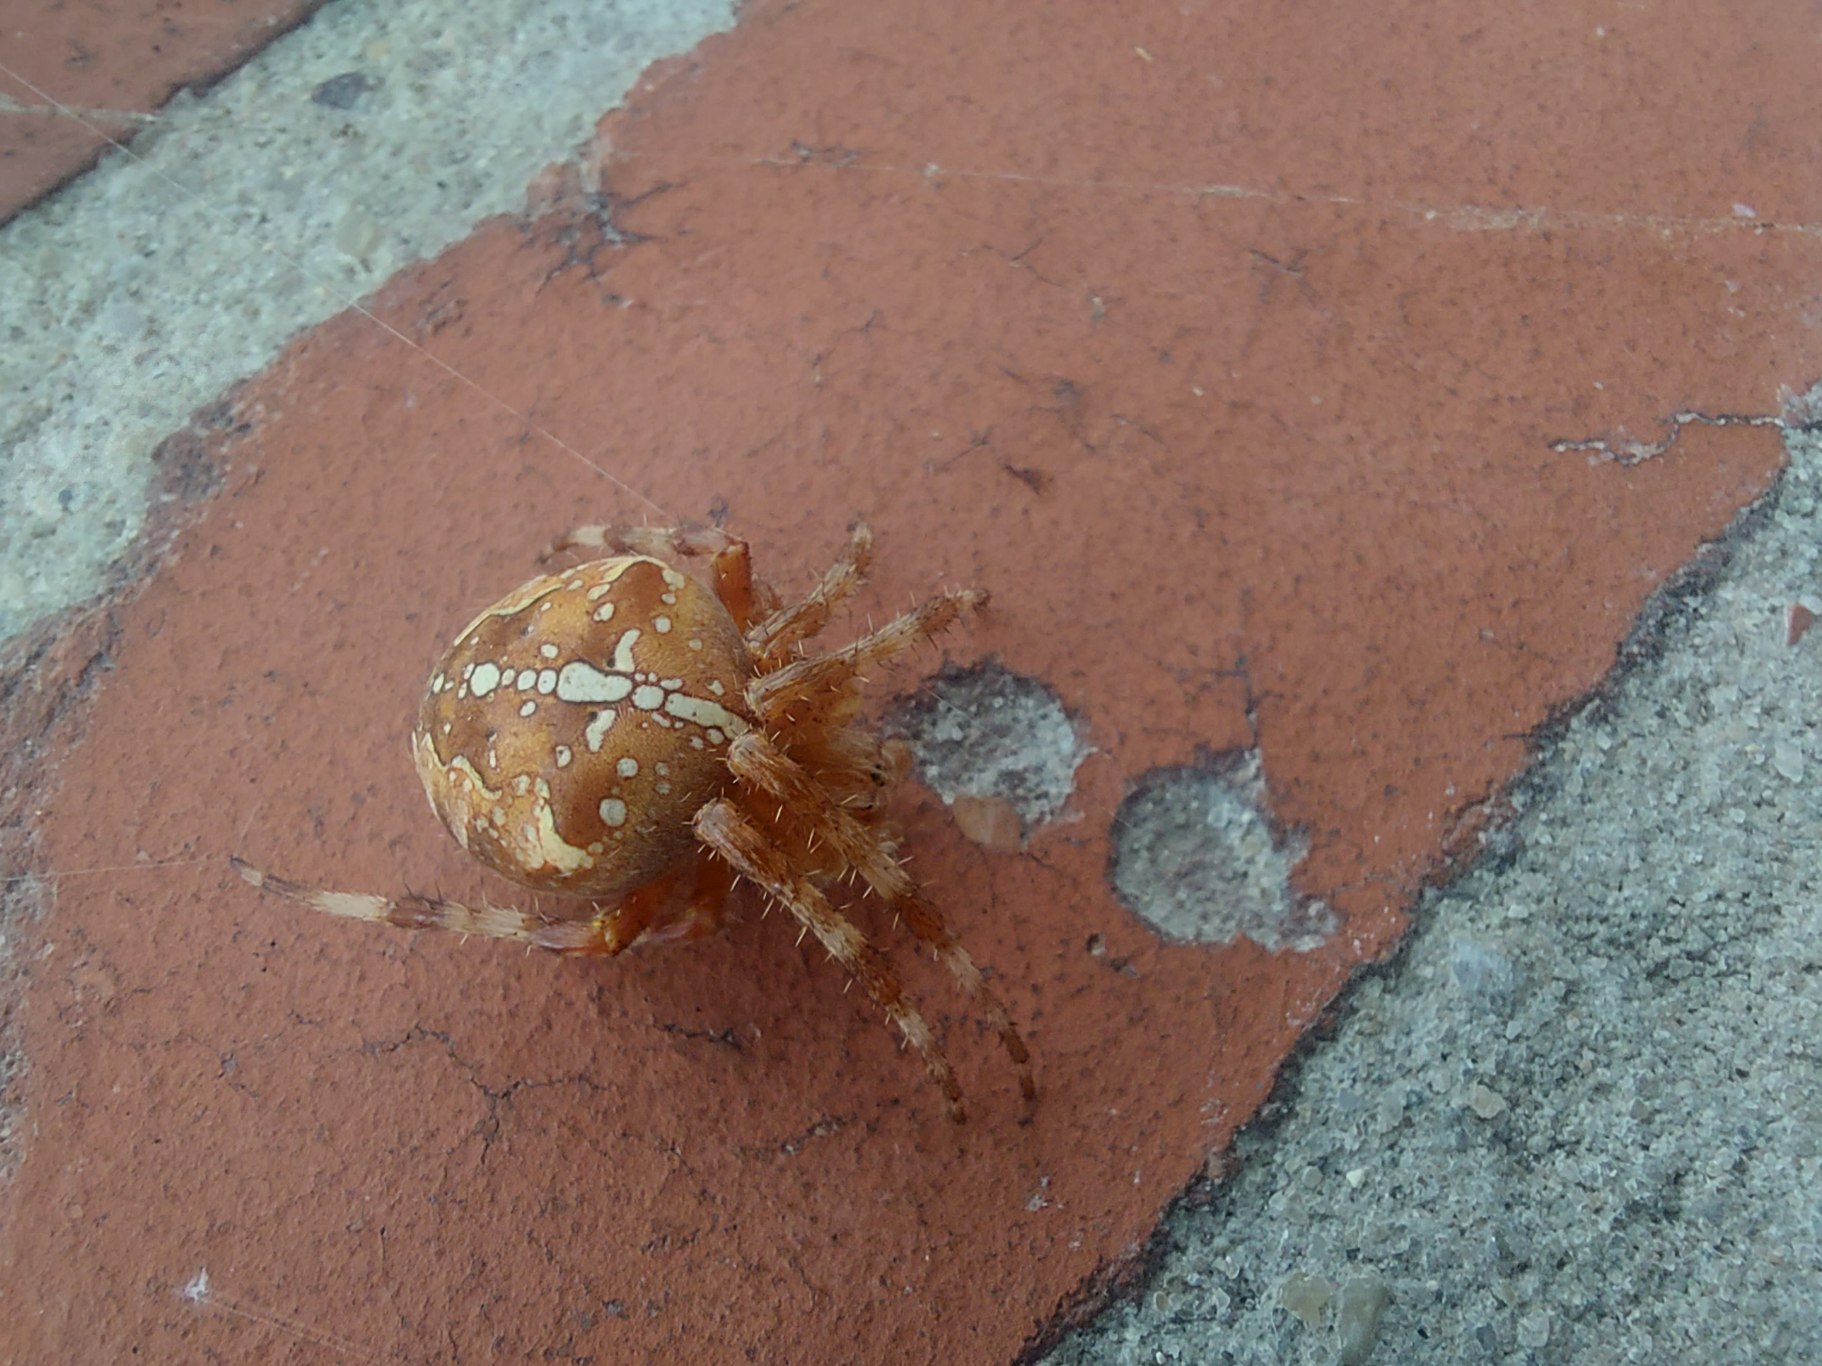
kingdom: Animalia
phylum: Arthropoda
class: Arachnida
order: Araneae
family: Araneidae
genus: Araneus
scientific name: Araneus diadematus
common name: Korsedderkop
